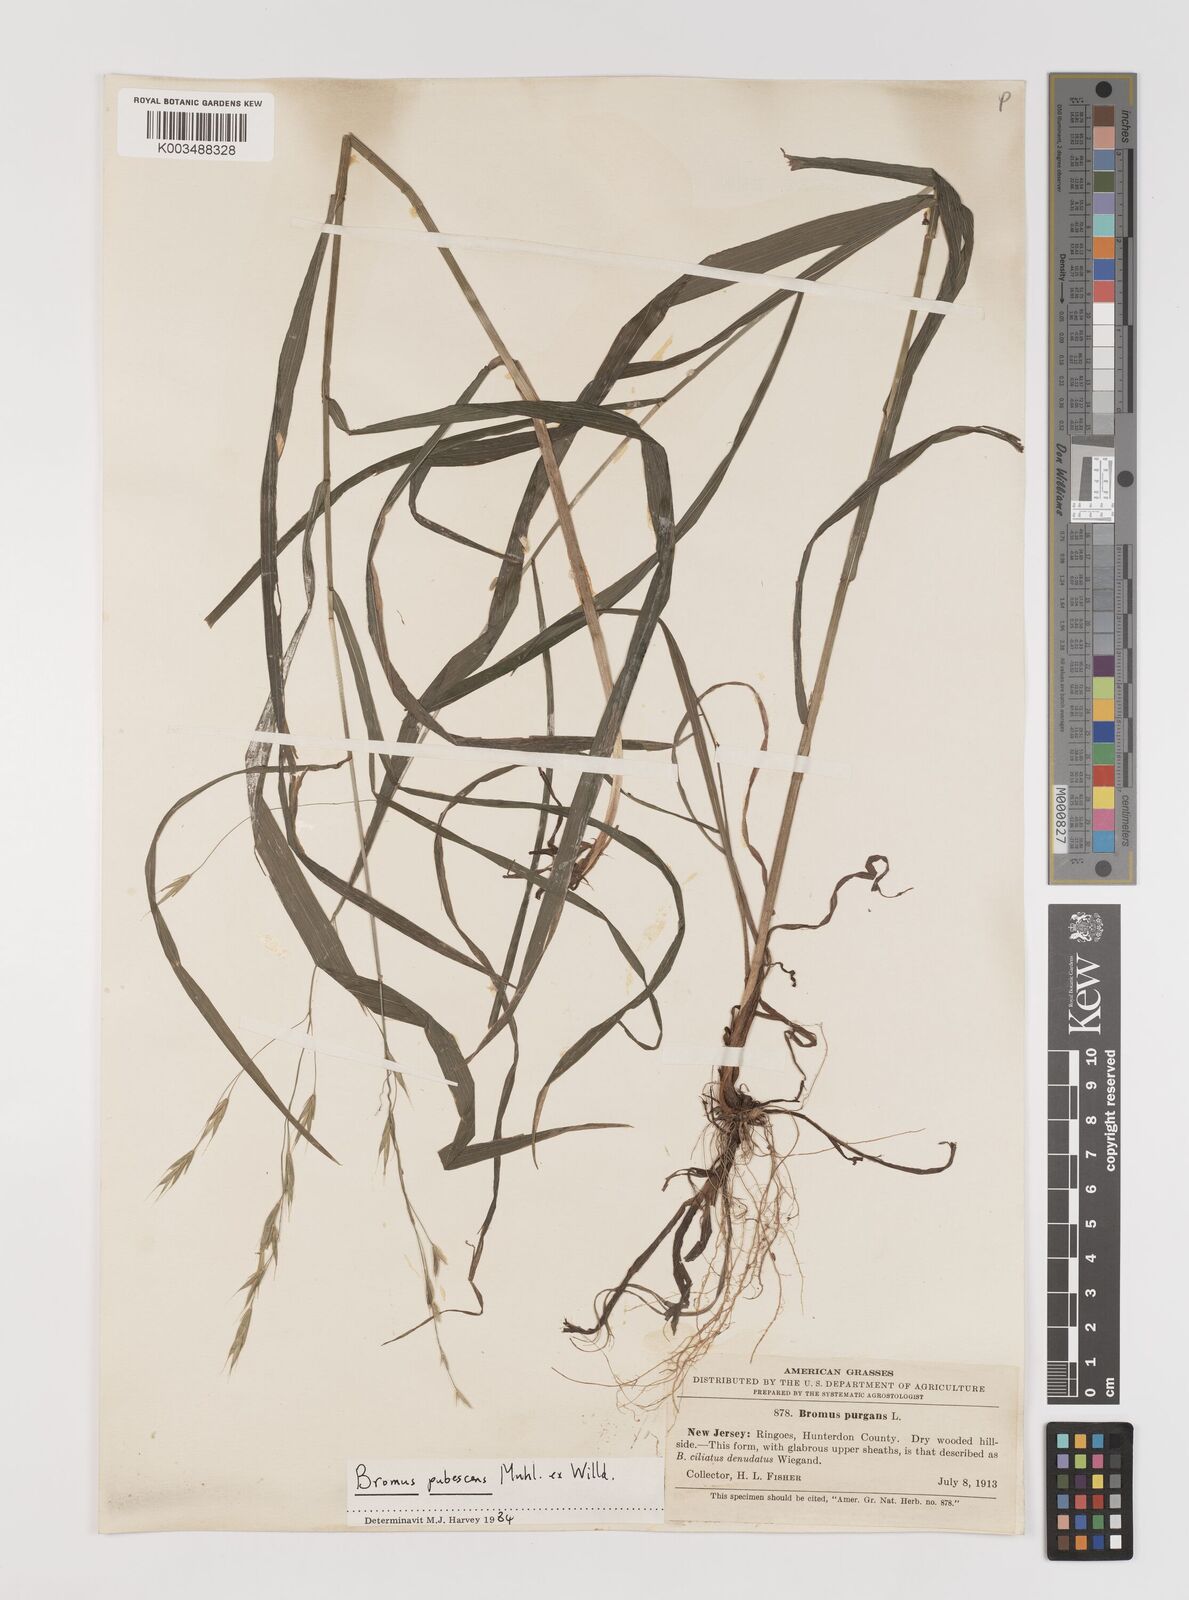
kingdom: Plantae
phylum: Tracheophyta
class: Liliopsida
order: Poales
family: Poaceae
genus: Bromus
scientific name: Bromus pubescens
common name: Hairy wood brome grass
